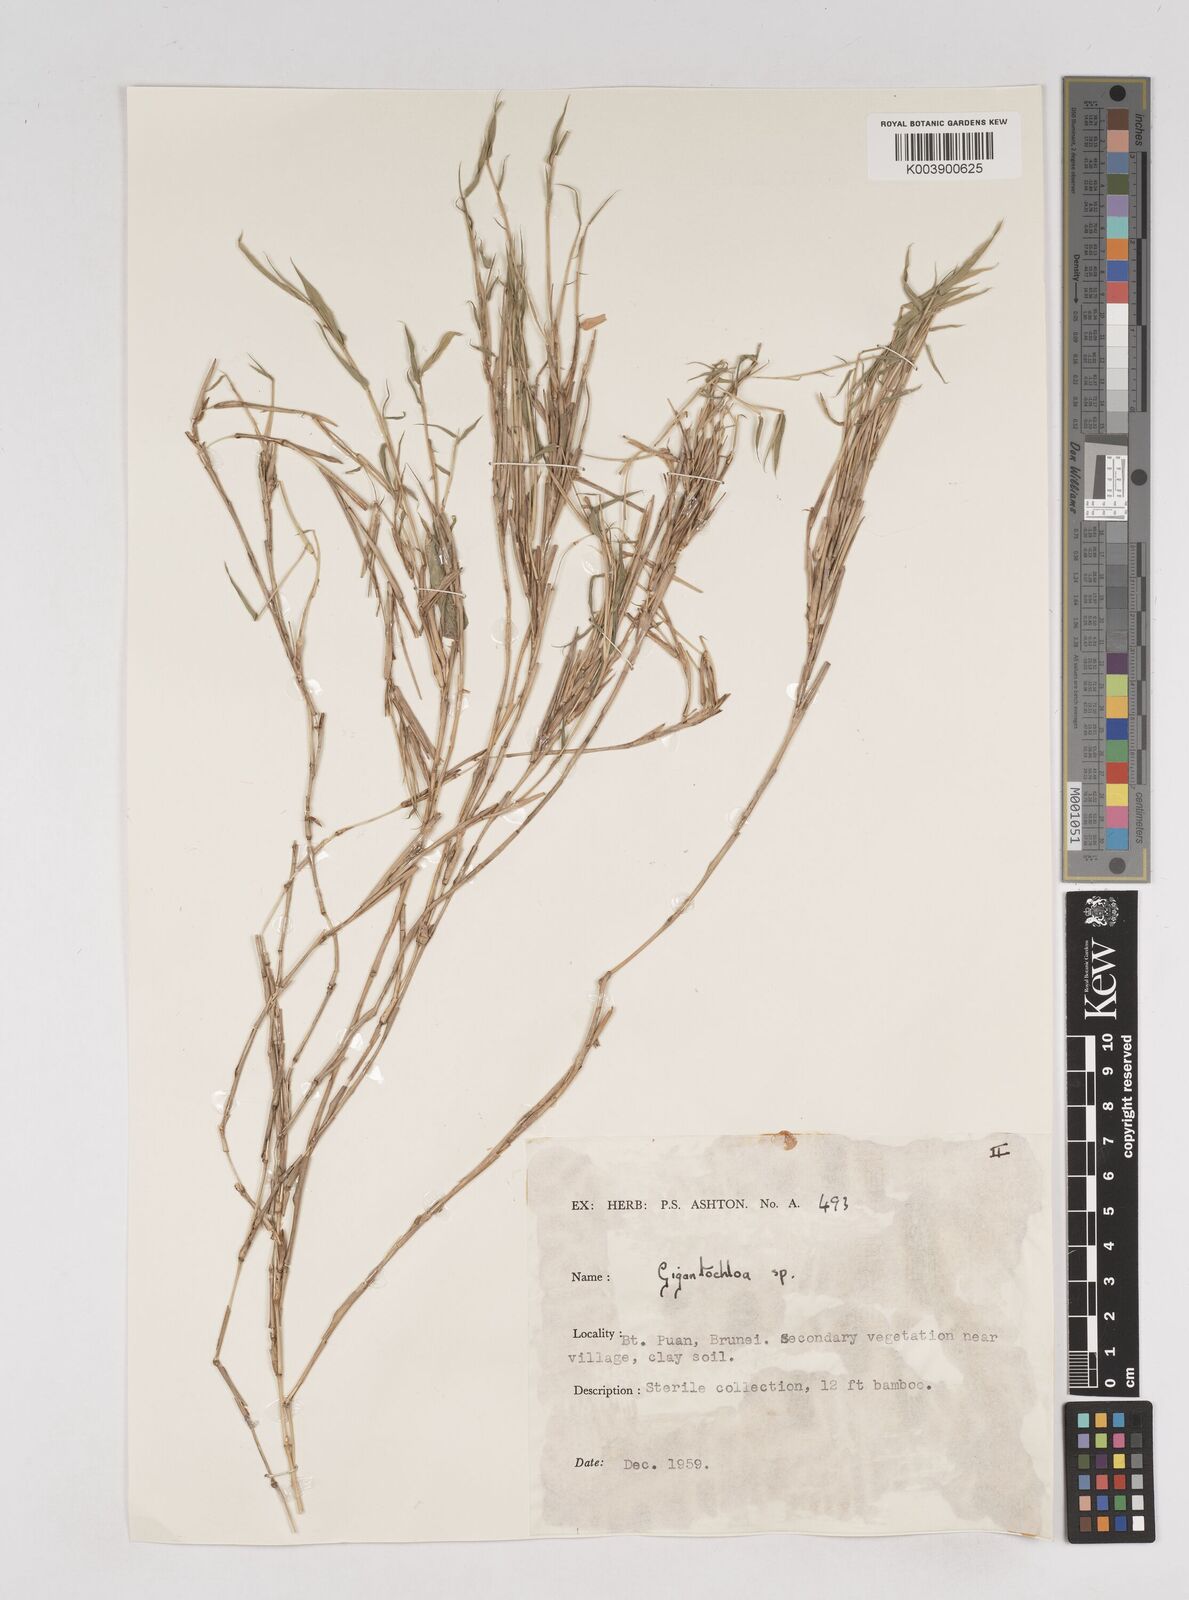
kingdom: Plantae
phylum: Tracheophyta
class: Liliopsida
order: Poales
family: Poaceae
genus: Gigantochloa
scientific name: Gigantochloa
